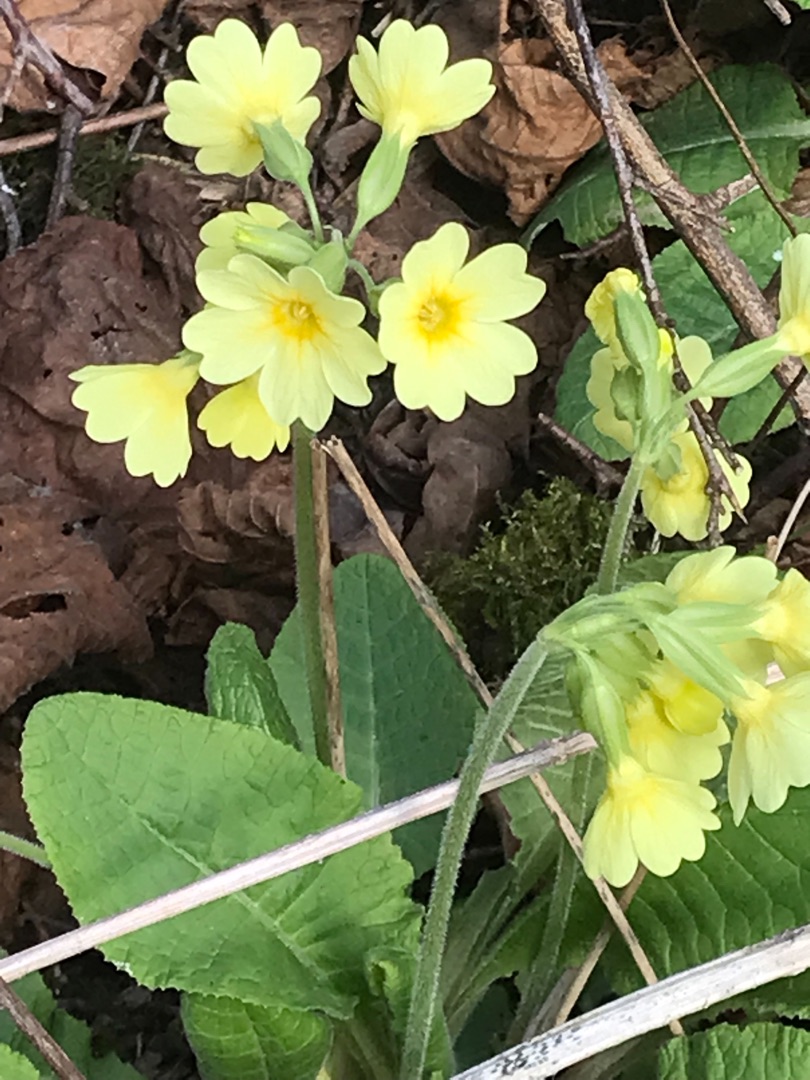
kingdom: Plantae
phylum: Tracheophyta
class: Magnoliopsida
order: Ericales
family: Primulaceae
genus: Primula
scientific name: Primula elatior
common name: Fladkravet kodriver
